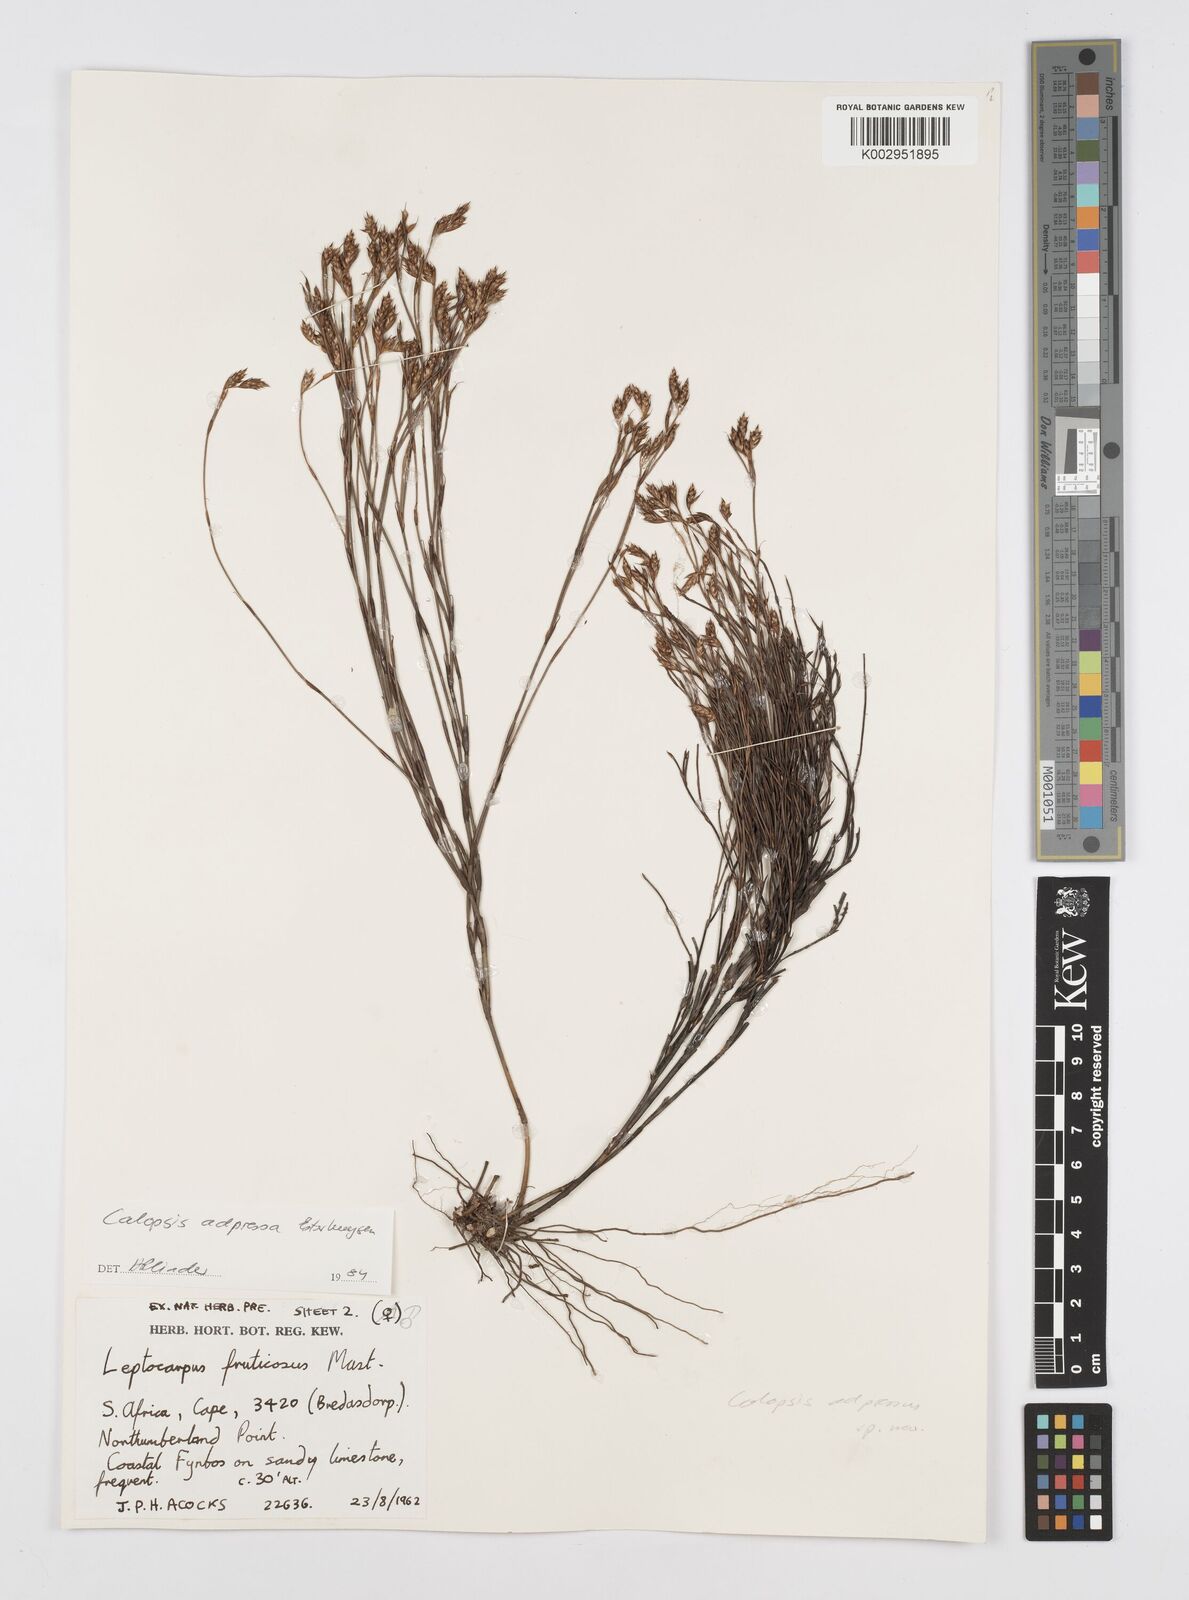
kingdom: Plantae
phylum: Tracheophyta
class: Liliopsida
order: Poales
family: Restionaceae
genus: Restio
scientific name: Restio adpressus
